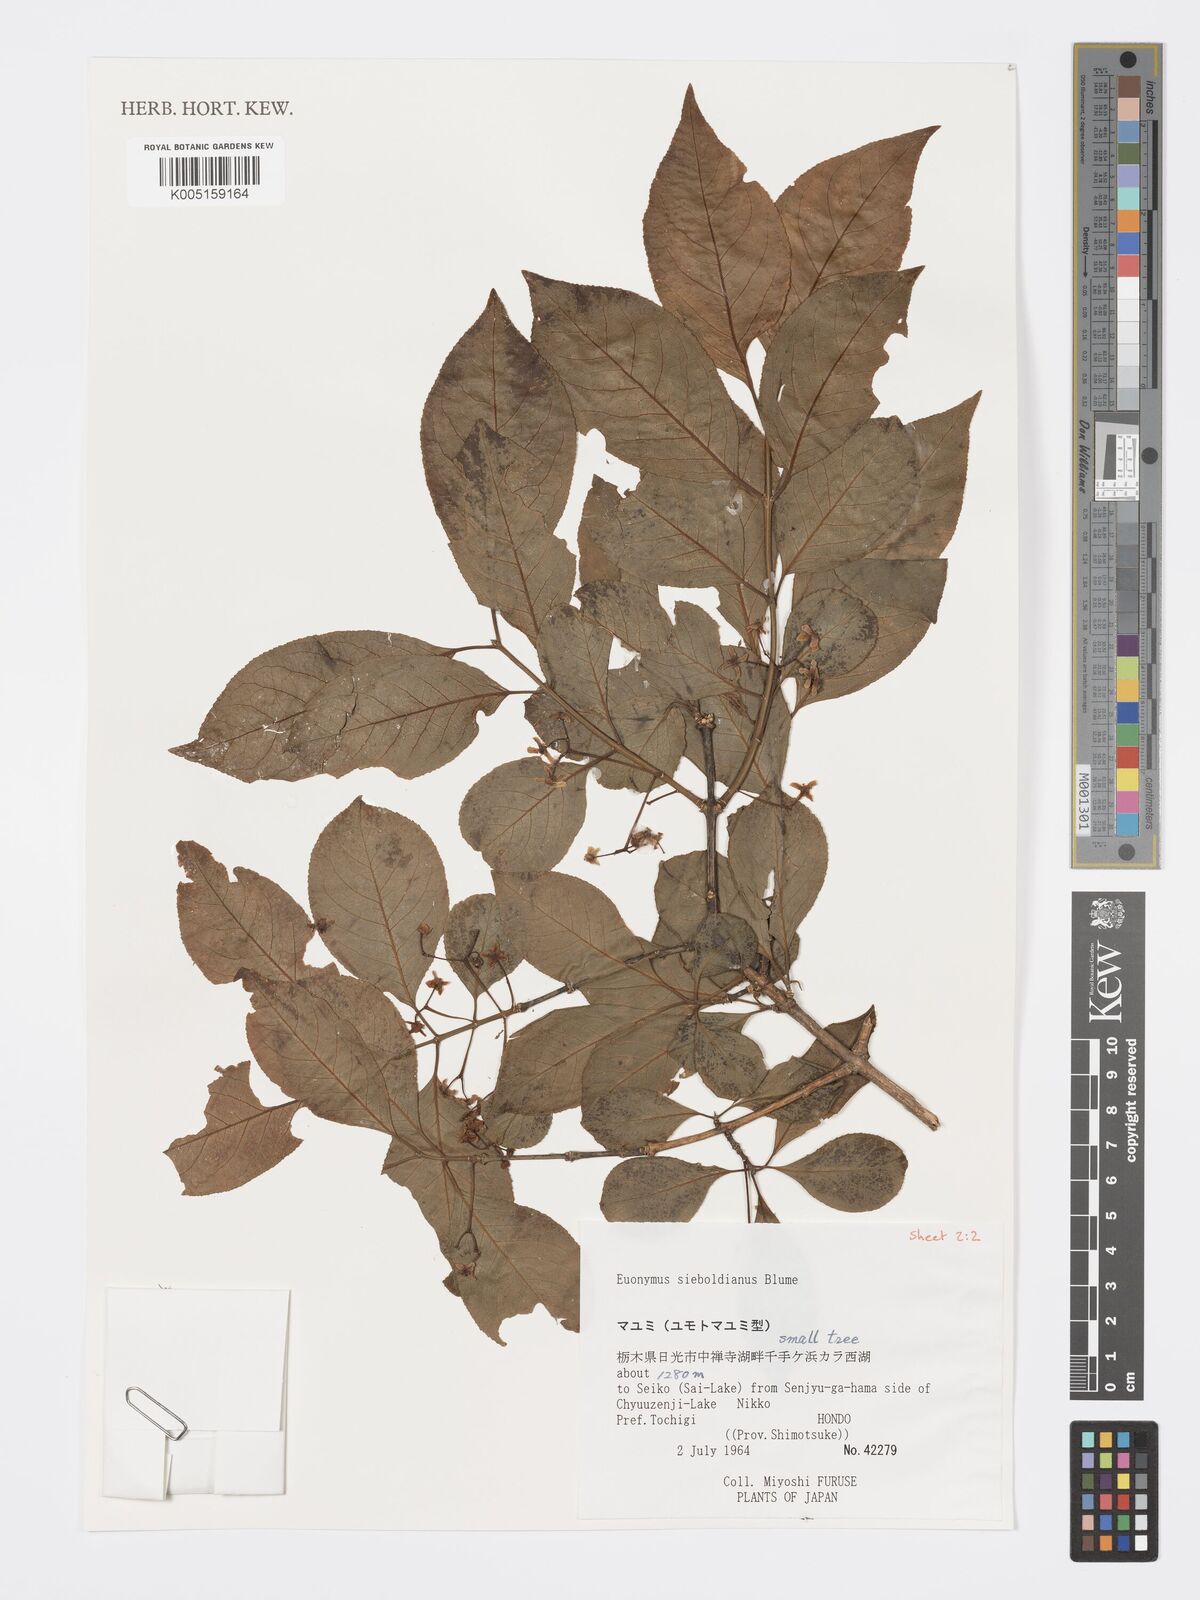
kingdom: Plantae
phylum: Tracheophyta
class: Magnoliopsida
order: Celastrales
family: Celastraceae
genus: Euonymus
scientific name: Euonymus hamiltonianus
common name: Hamilton's spindletree
